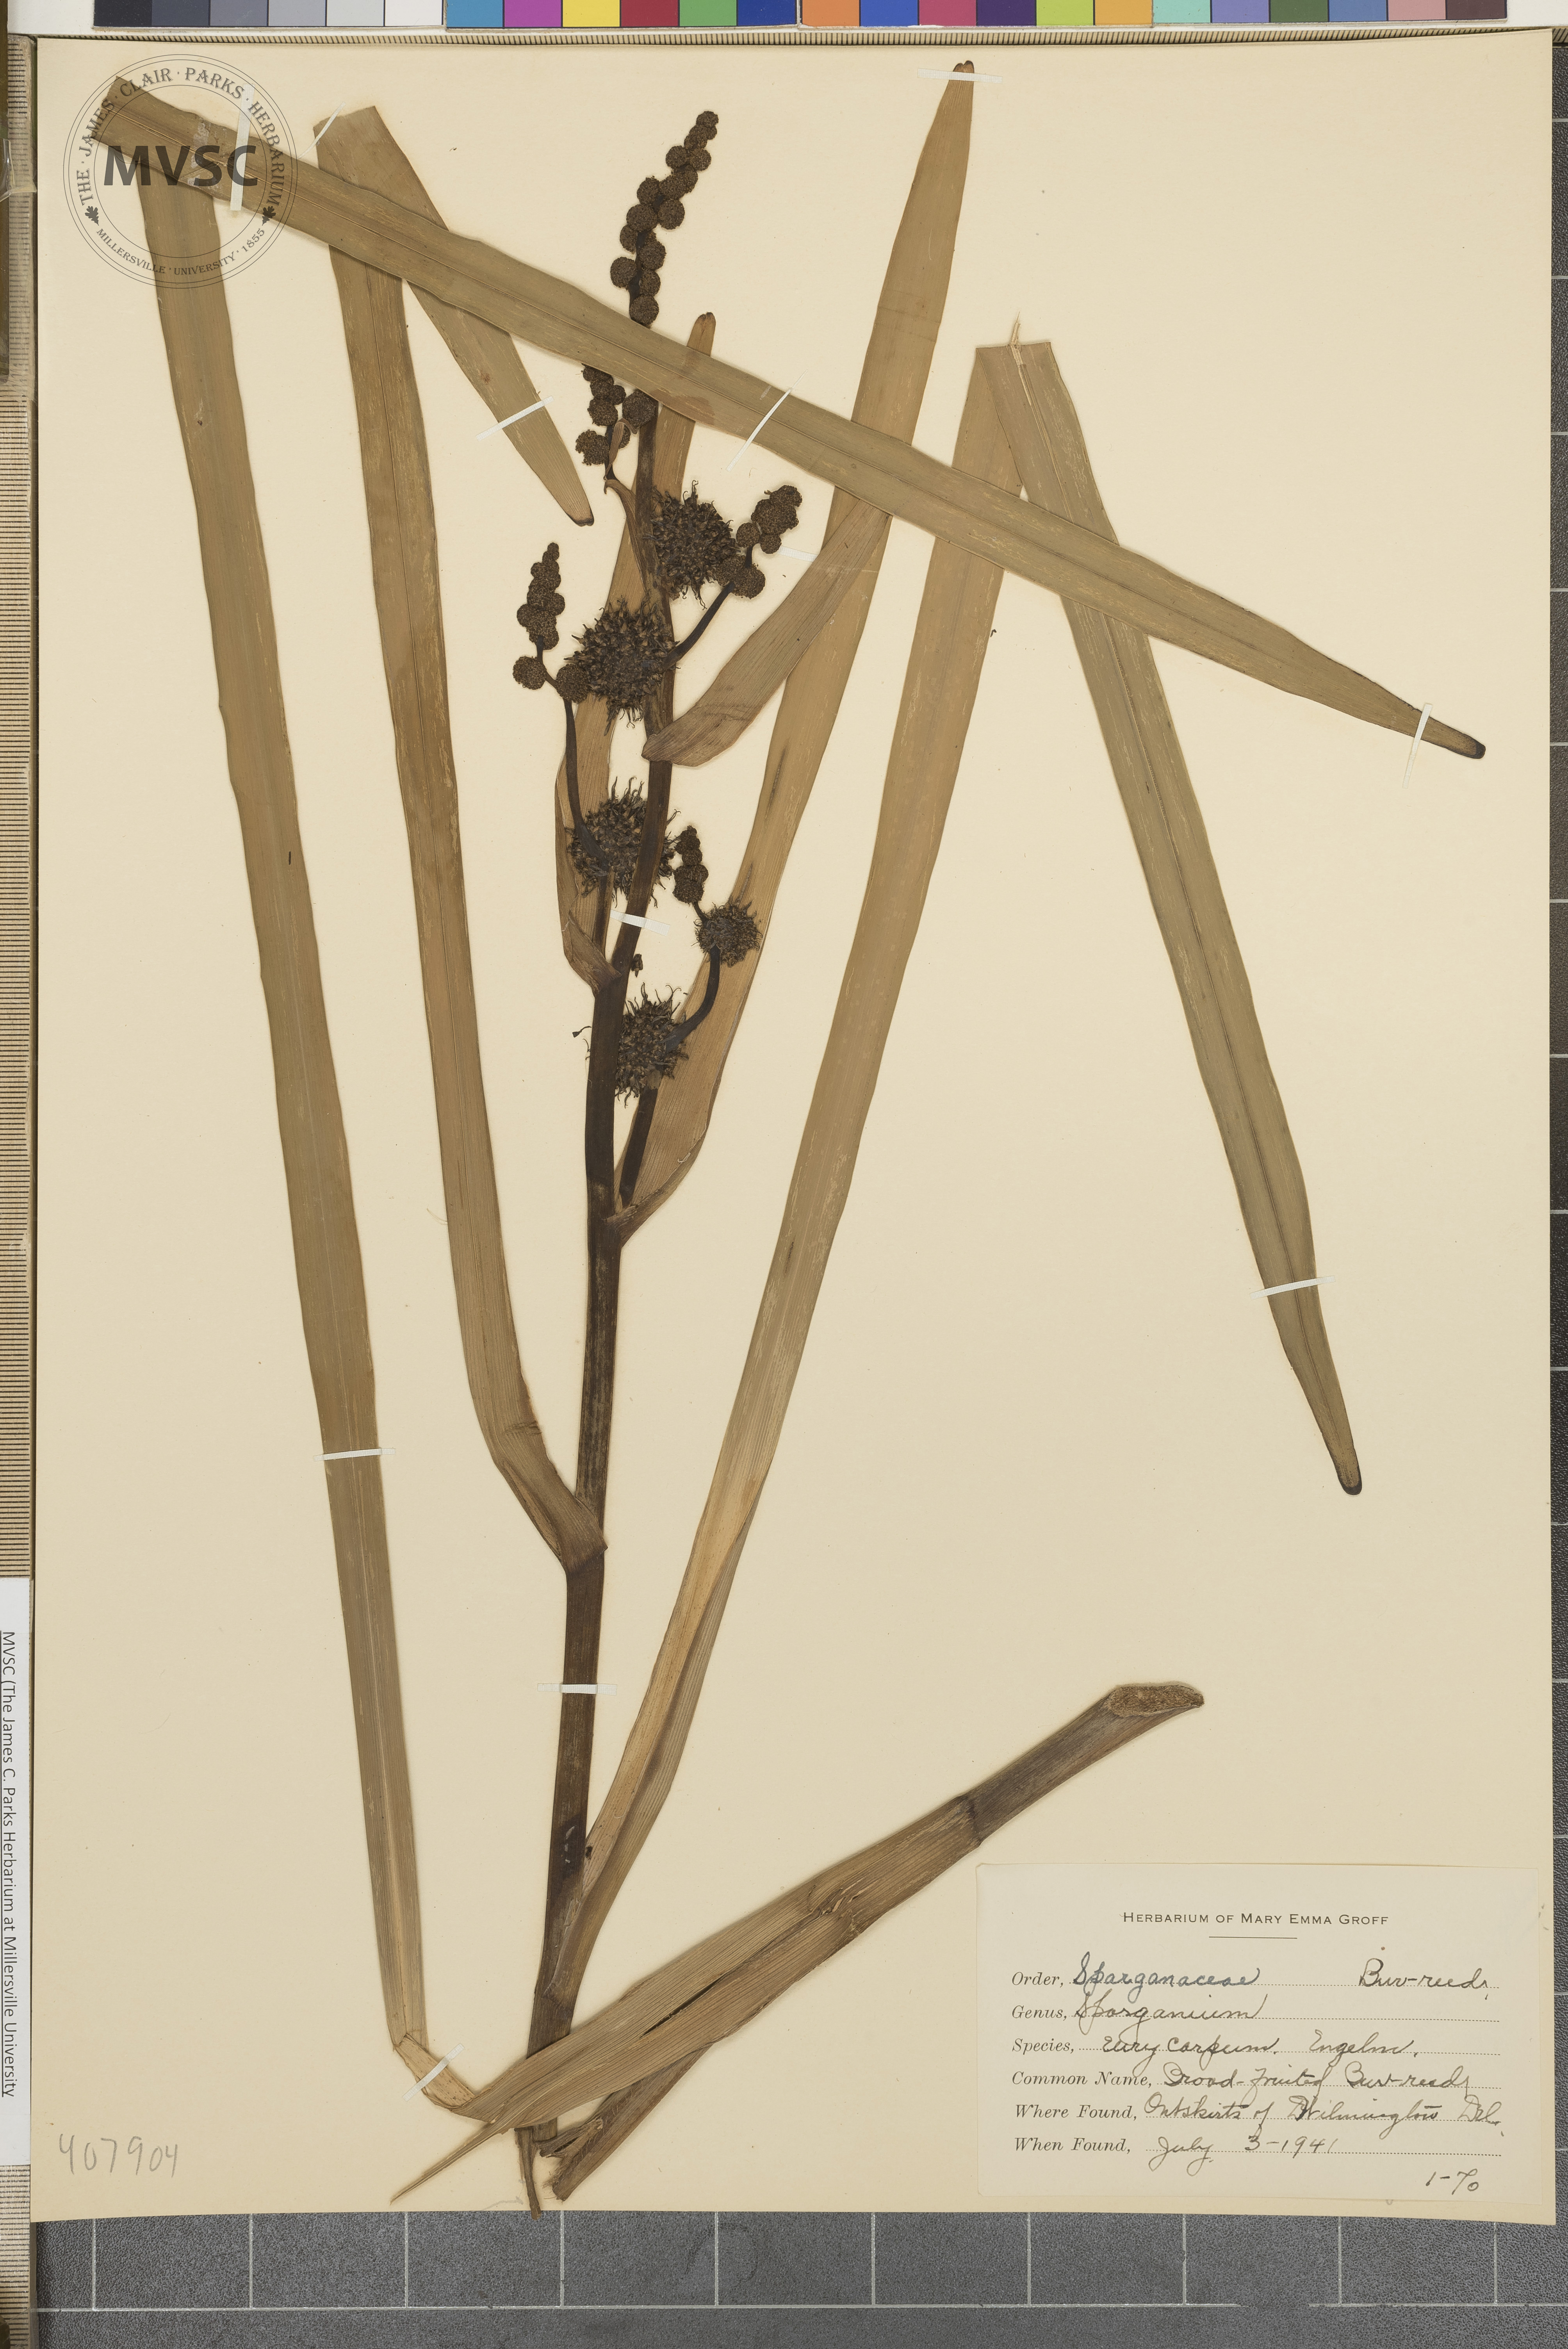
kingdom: Plantae
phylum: Tracheophyta
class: Liliopsida
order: Poales
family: Typhaceae
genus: Sparganium
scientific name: Sparganium eurycarpum
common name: Broad-fruited burreed
